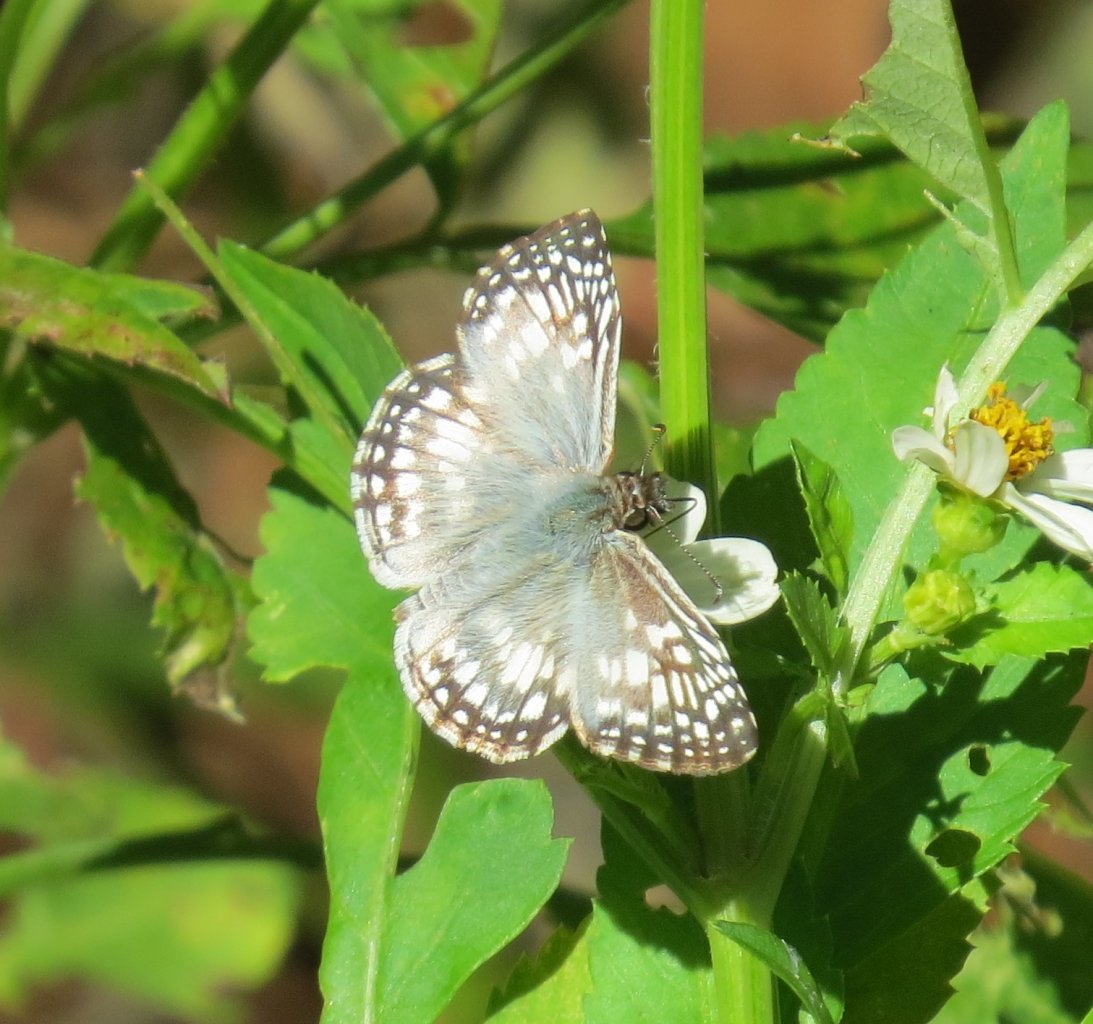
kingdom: Animalia
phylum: Arthropoda
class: Insecta
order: Lepidoptera
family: Hesperiidae
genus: Pyrgus
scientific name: Pyrgus oileus
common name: Tropical Checkered-Skipper
